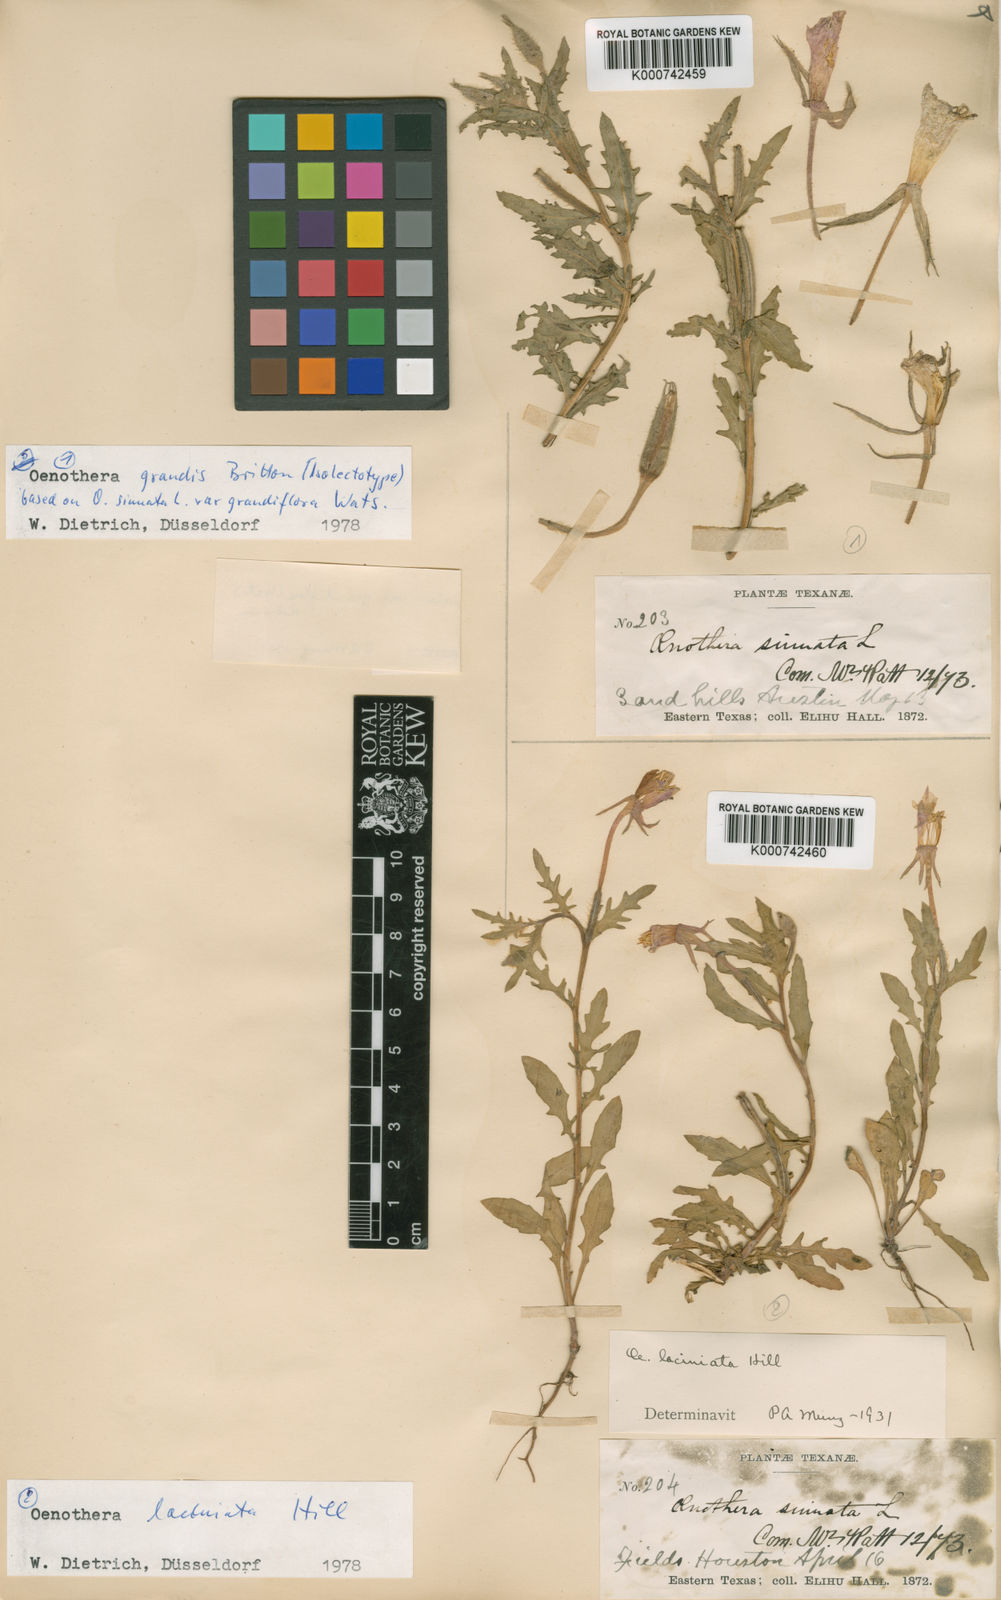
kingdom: Plantae
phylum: Tracheophyta
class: Magnoliopsida
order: Myrtales
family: Onagraceae
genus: Oenothera
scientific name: Oenothera
